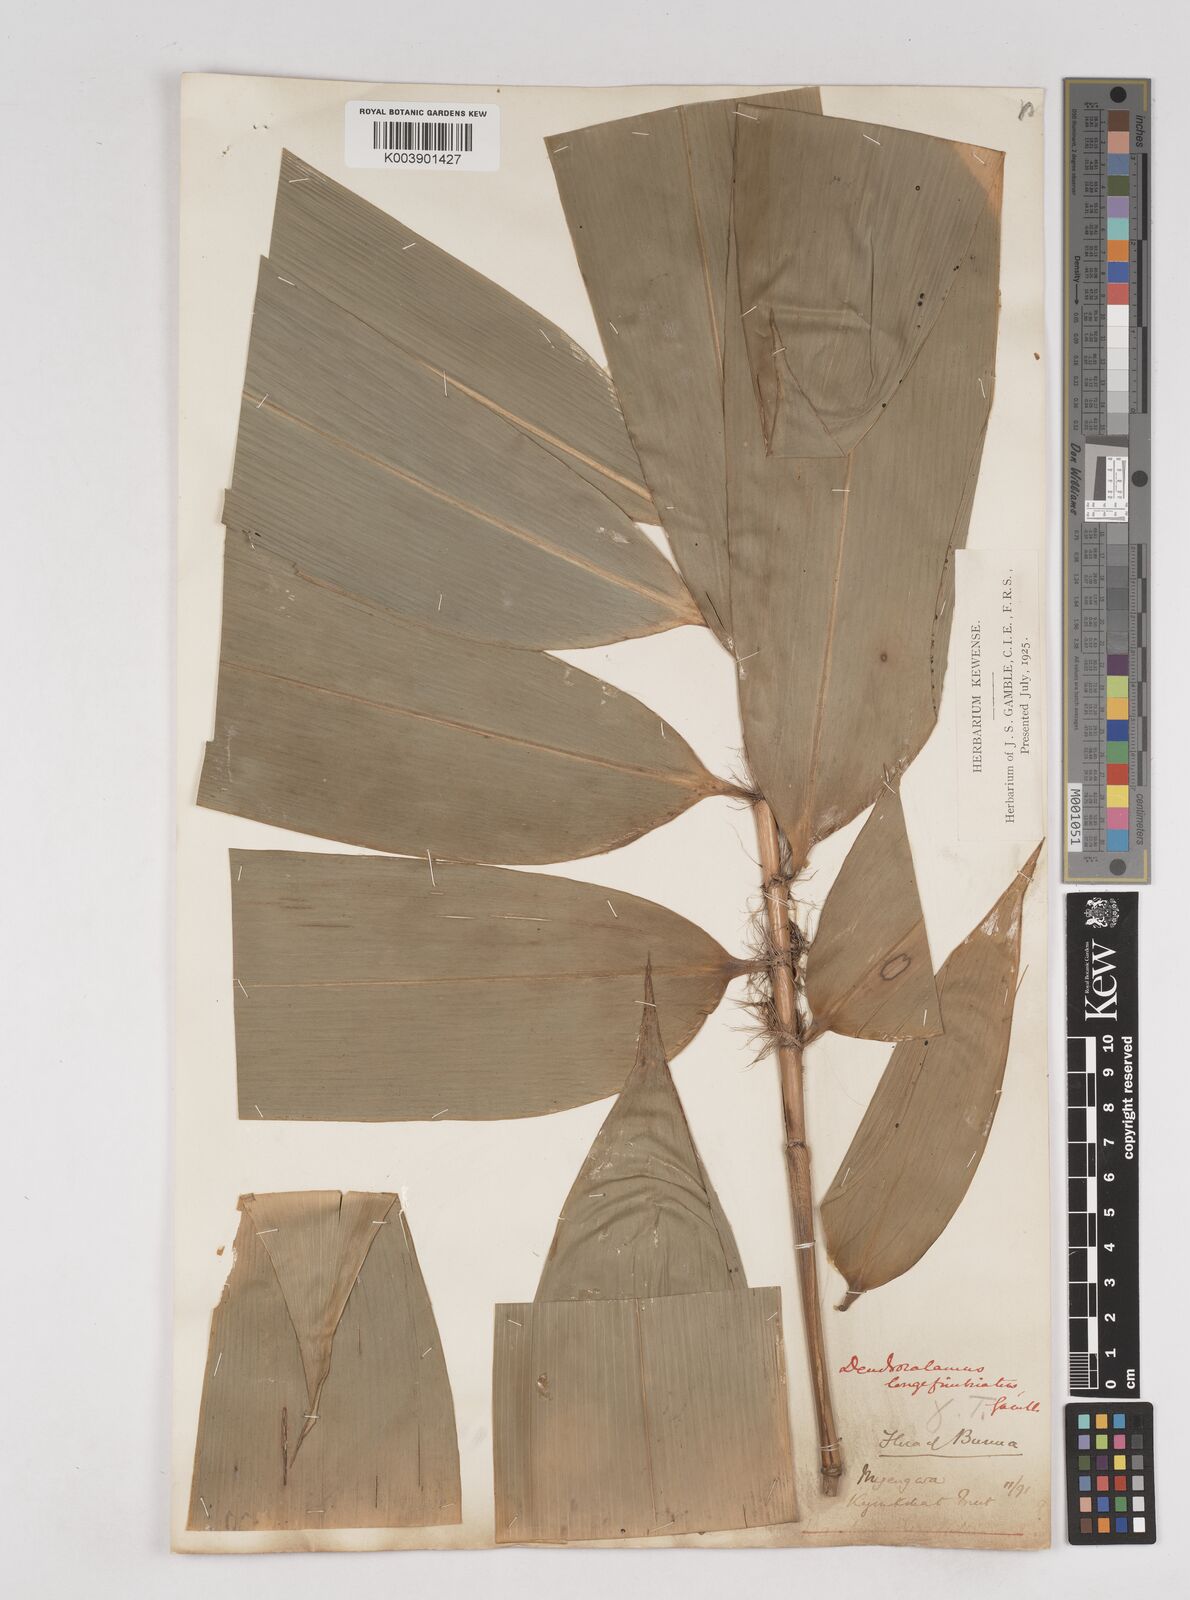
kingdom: Plantae
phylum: Tracheophyta
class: Liliopsida
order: Poales
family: Poaceae
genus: Schizostachyum
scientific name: Schizostachyum
